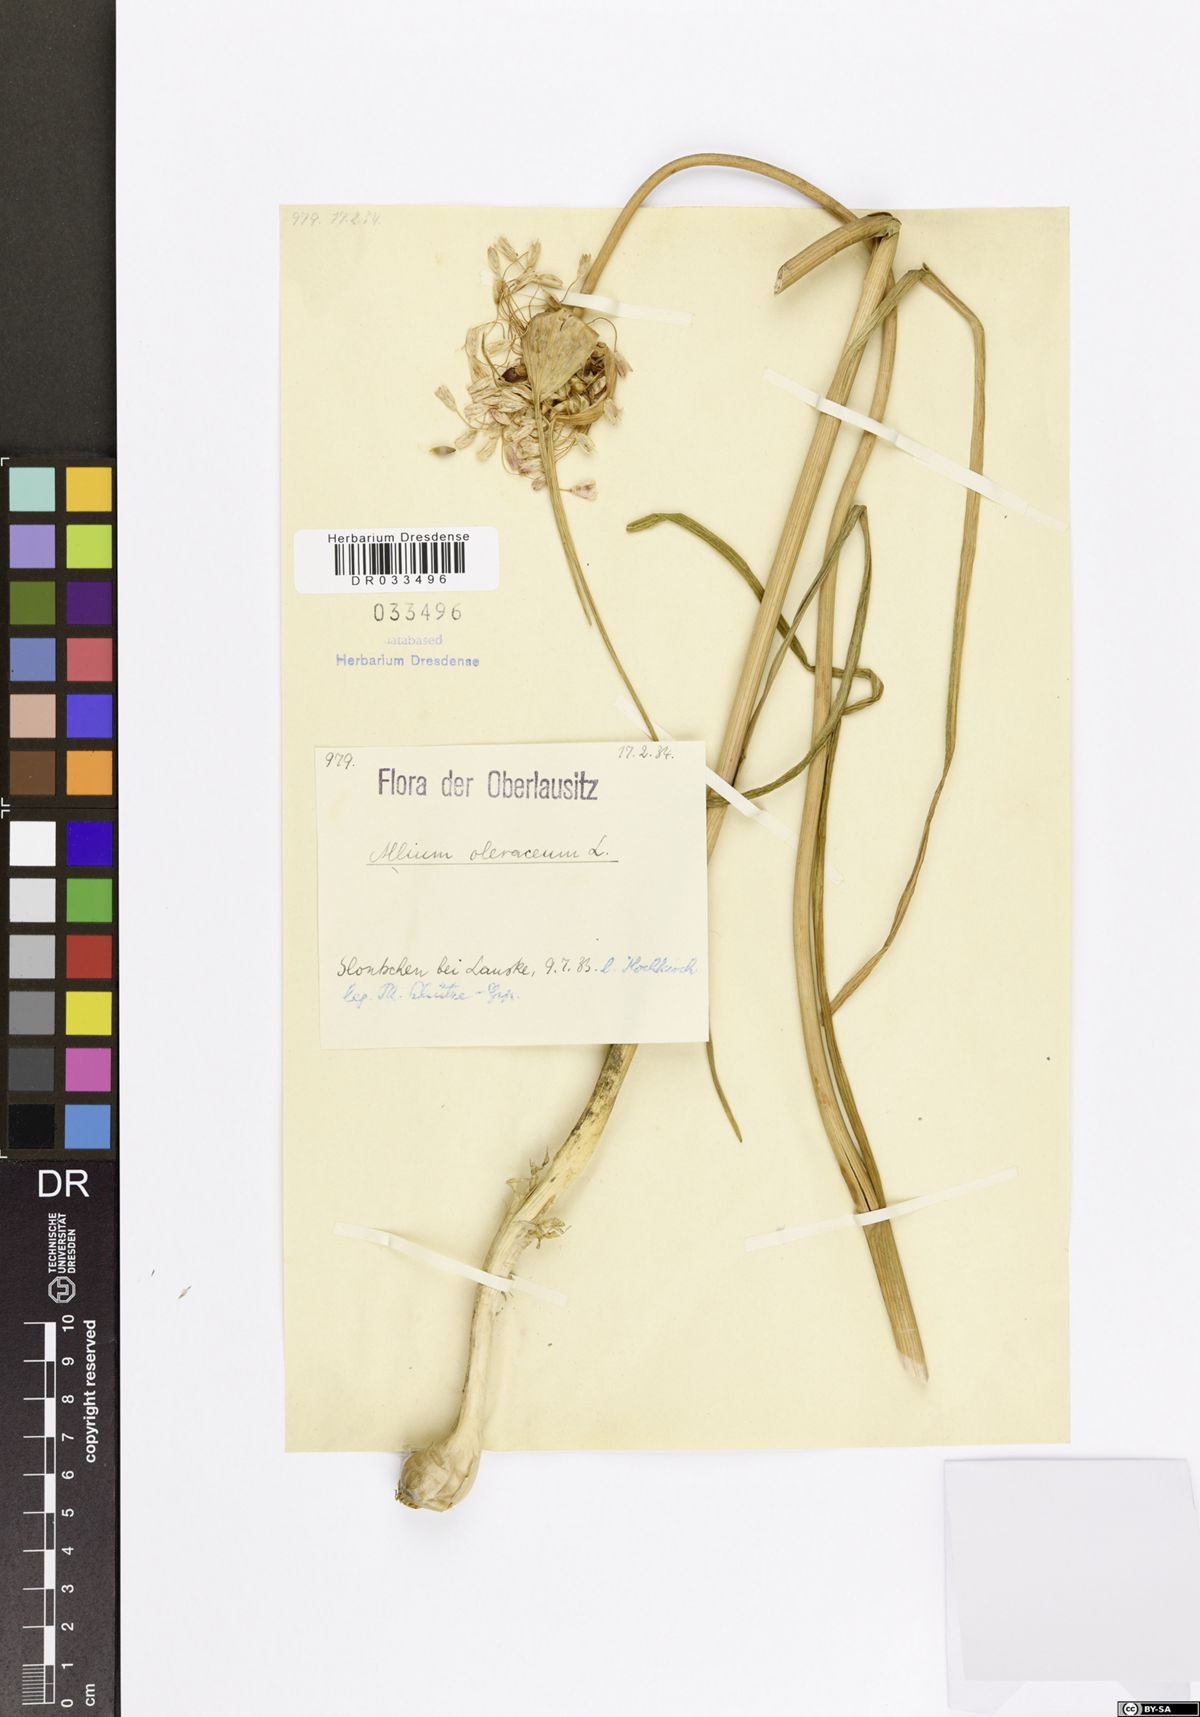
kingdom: Plantae
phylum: Tracheophyta
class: Liliopsida
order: Asparagales
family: Amaryllidaceae
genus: Allium
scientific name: Allium oleraceum
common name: Field garlic
